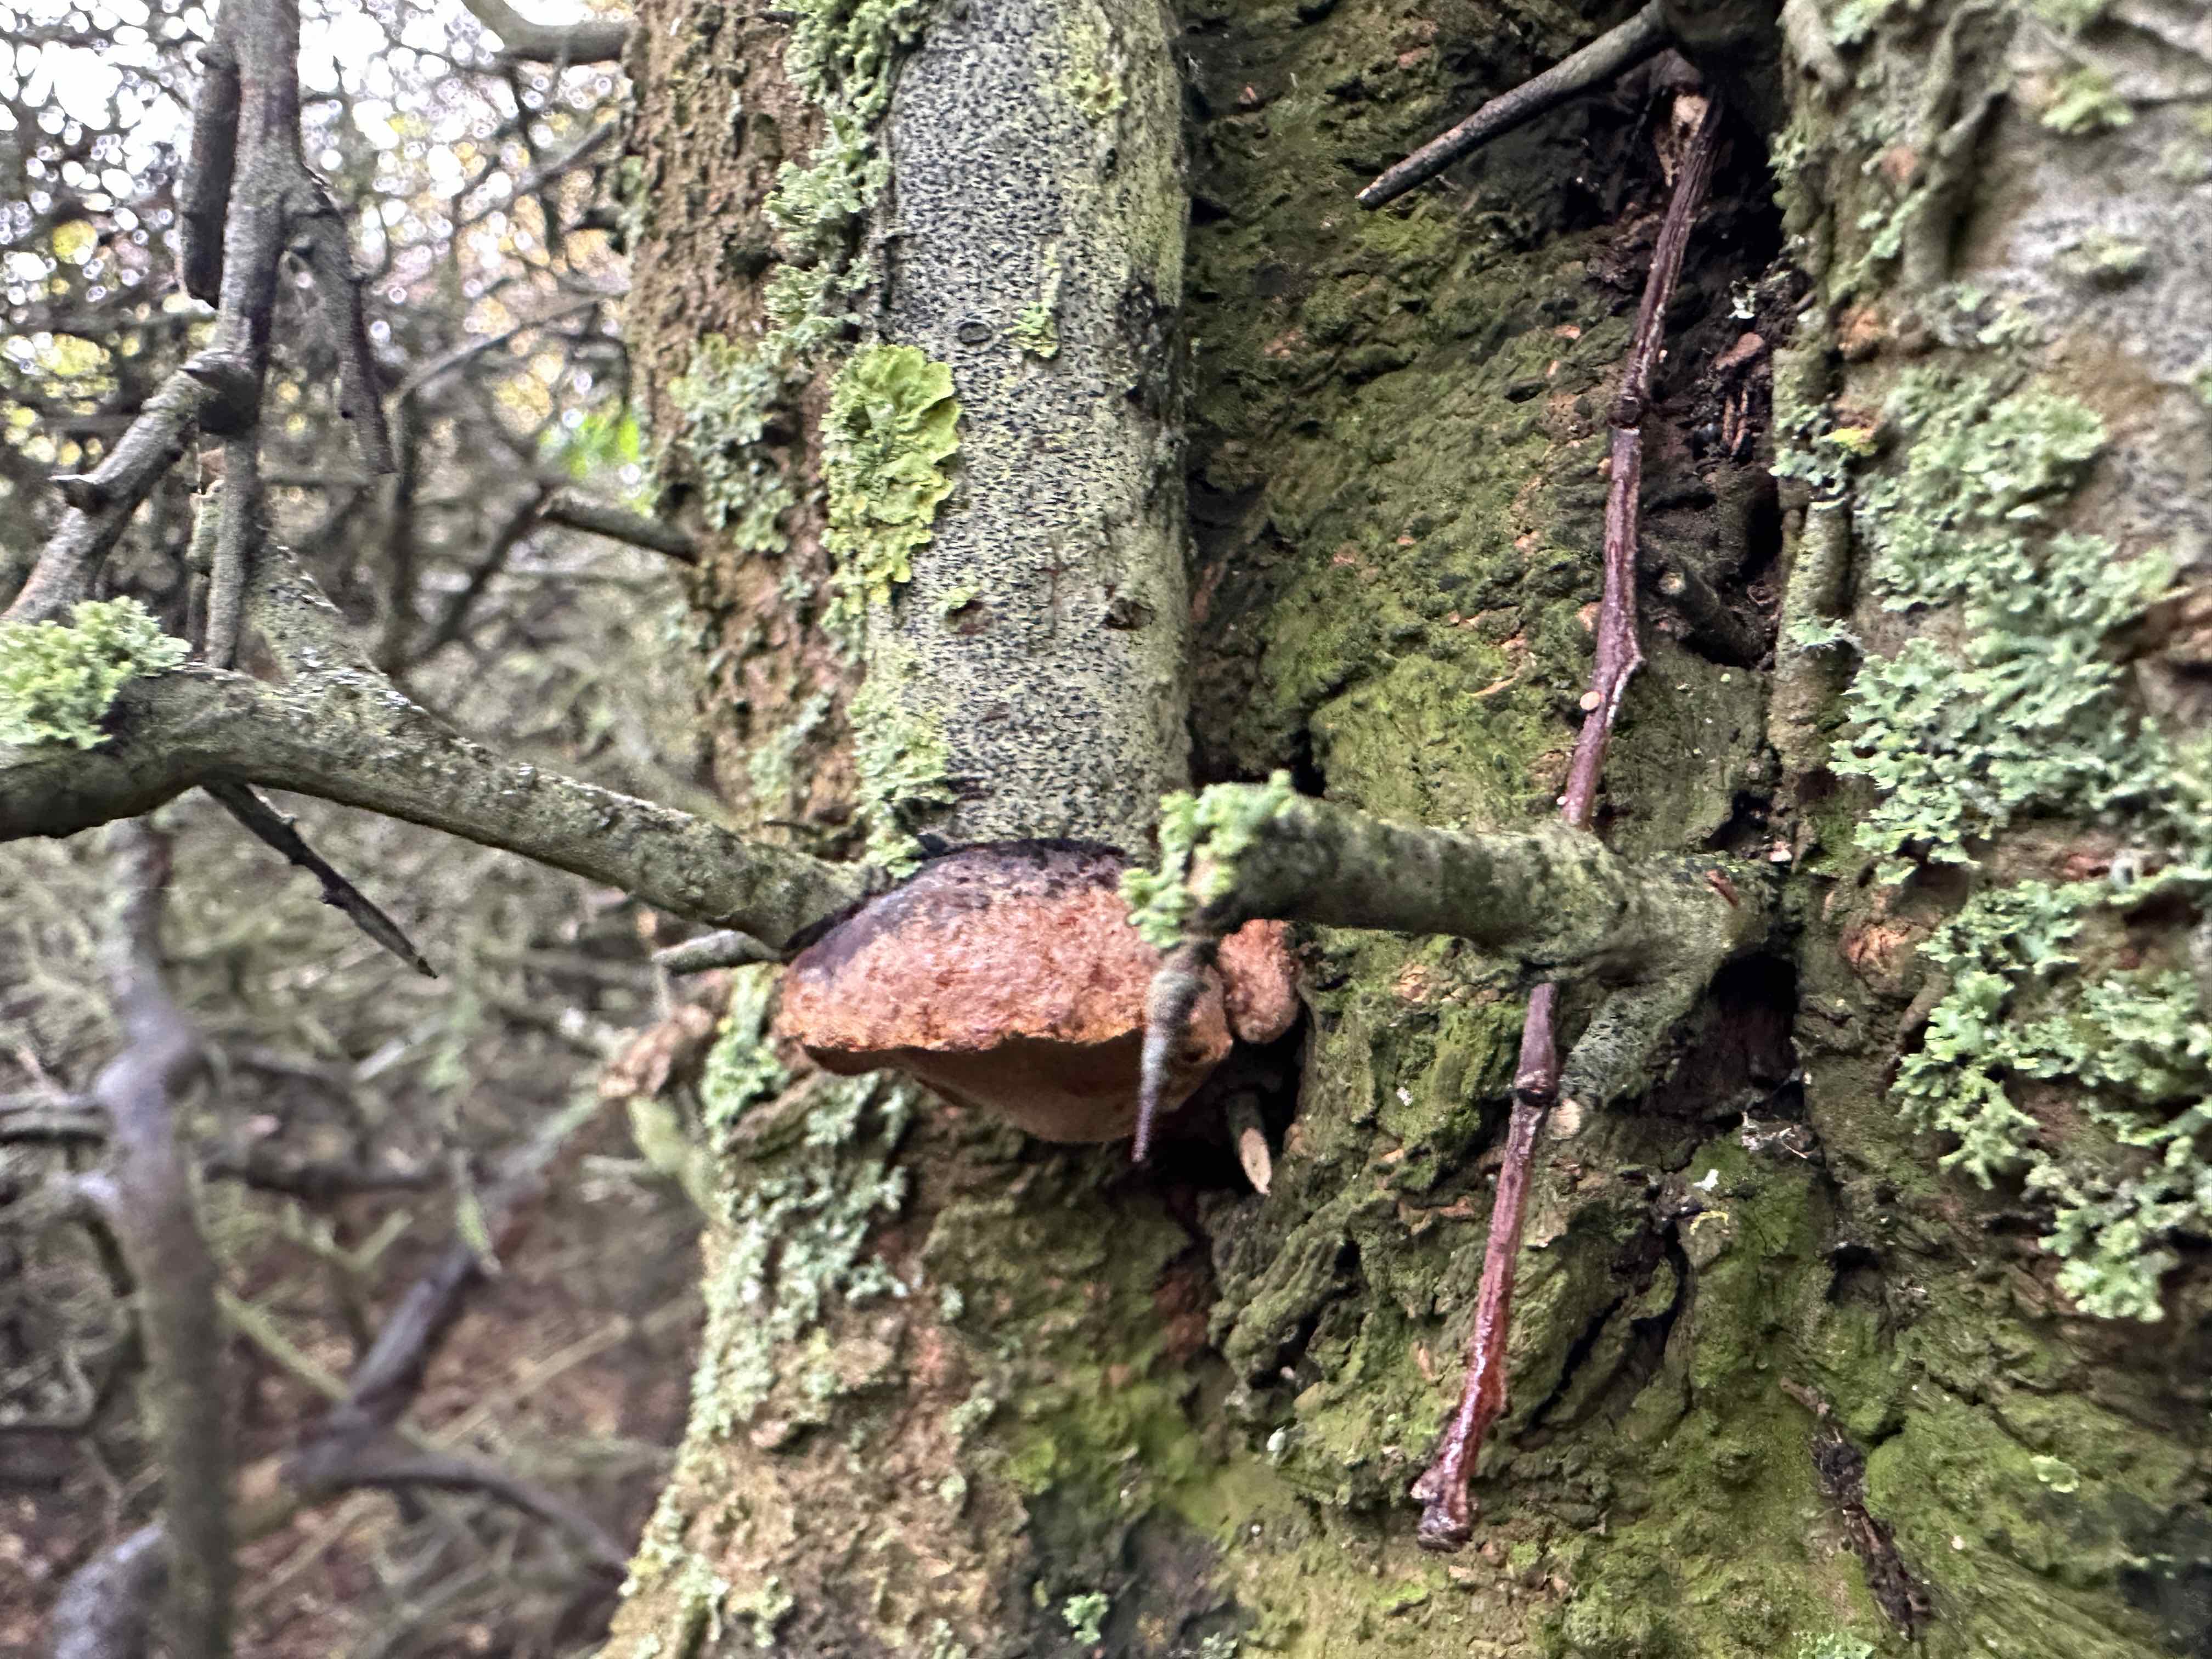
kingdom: Fungi
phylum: Basidiomycota
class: Agaricomycetes
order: Hymenochaetales
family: Hymenochaetaceae
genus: Phellinus
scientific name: Phellinus pomaceus
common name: blomme-ildporesvamp
